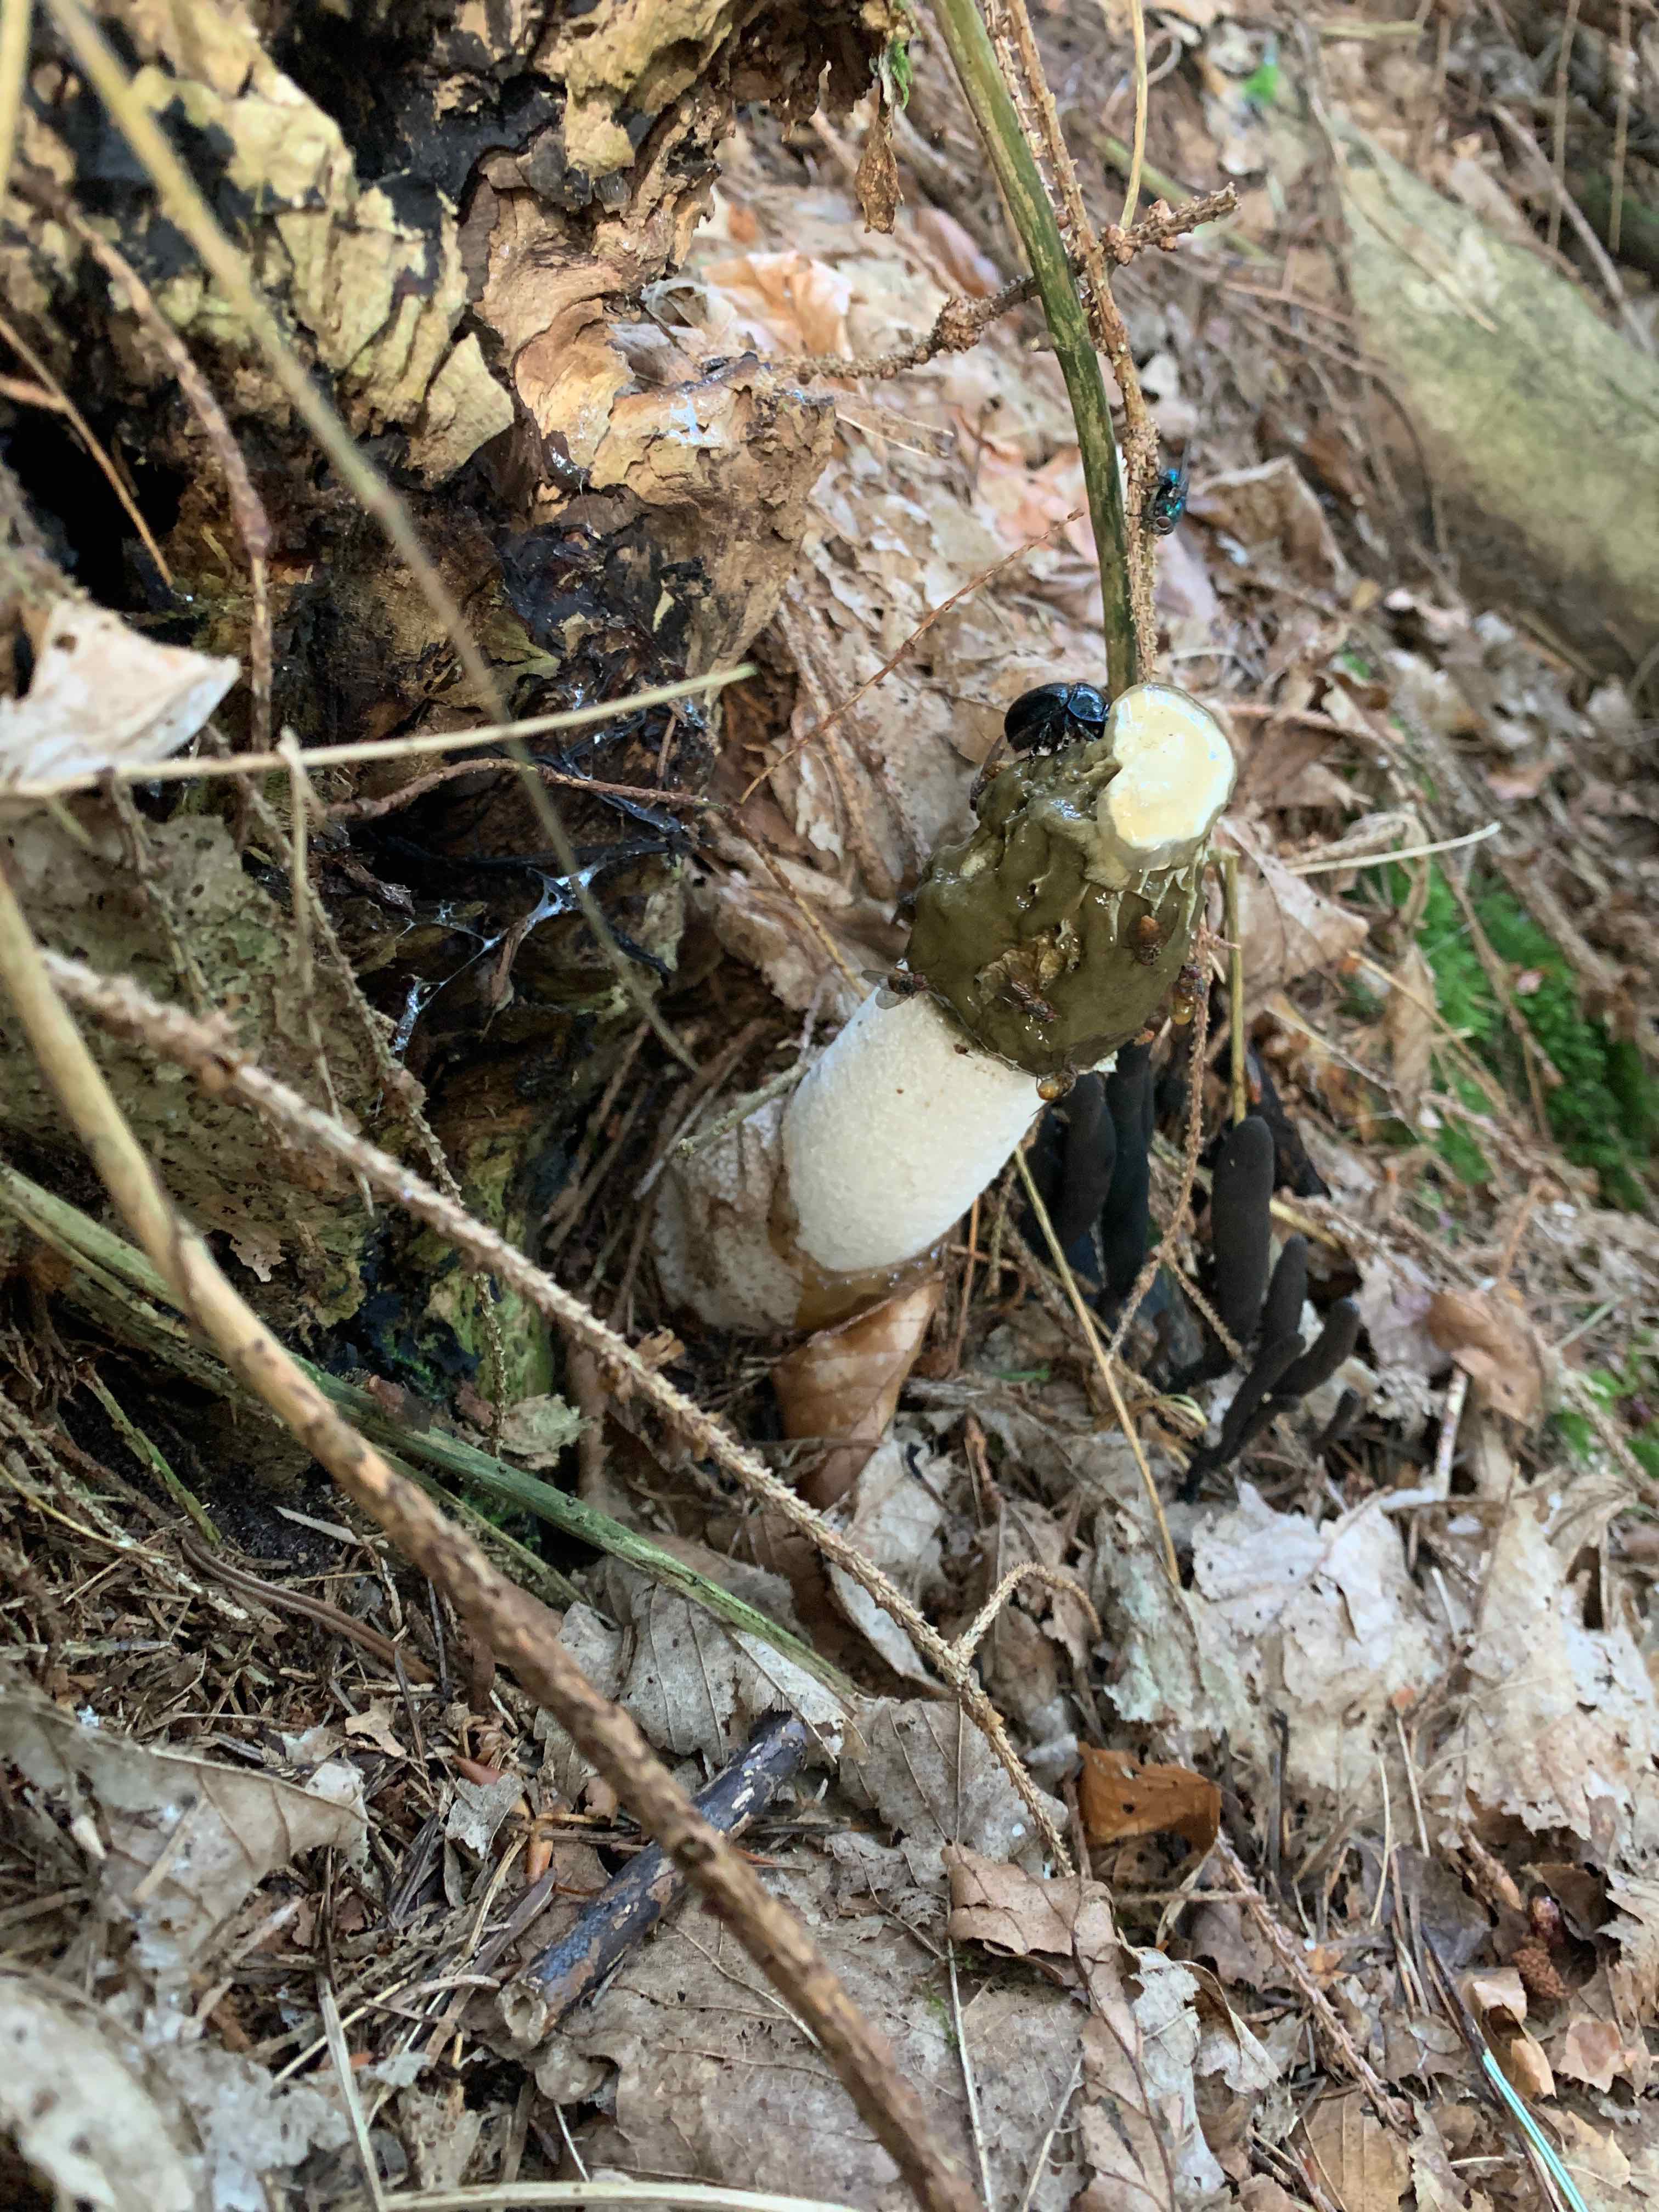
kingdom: Fungi
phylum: Basidiomycota
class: Agaricomycetes
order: Phallales
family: Phallaceae
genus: Phallus
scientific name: Phallus impudicus
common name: almindelig stinksvamp
